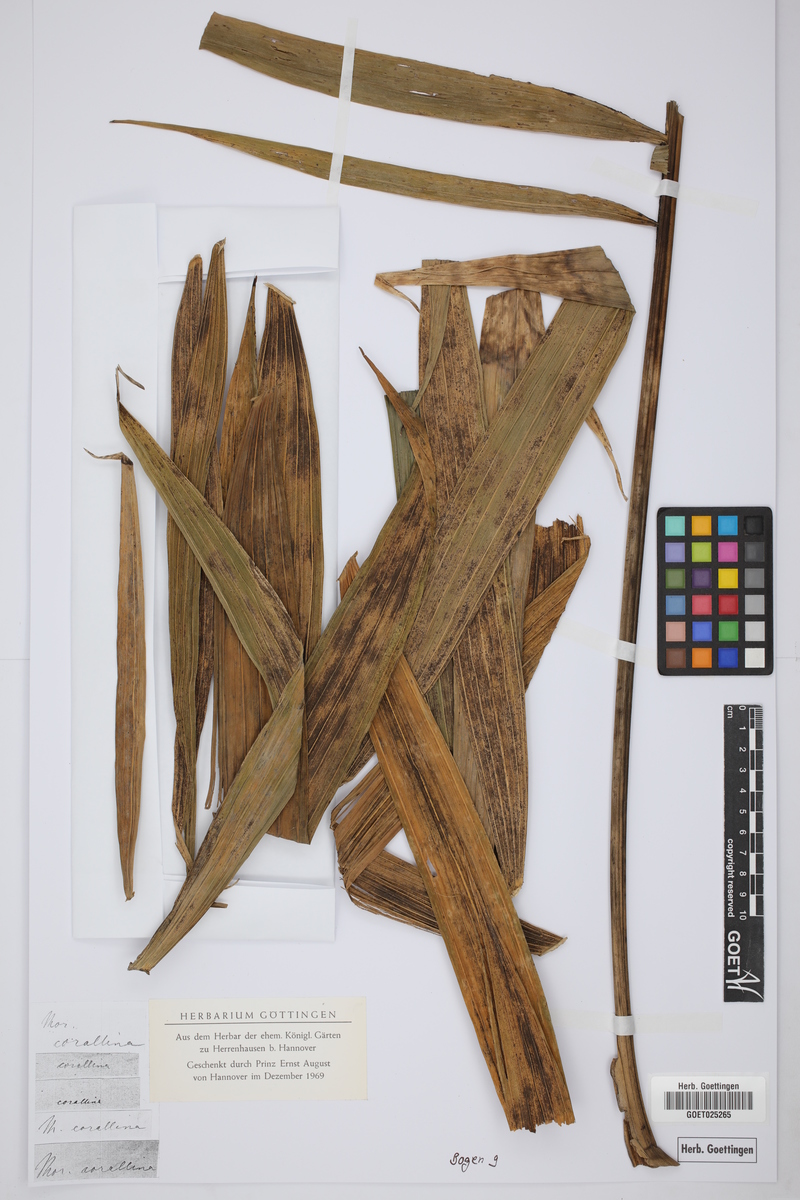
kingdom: Plantae
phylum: Tracheophyta
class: Liliopsida
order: Arecales
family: Arecaceae
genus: Chamaedorea
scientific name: Chamaedorea linearis
